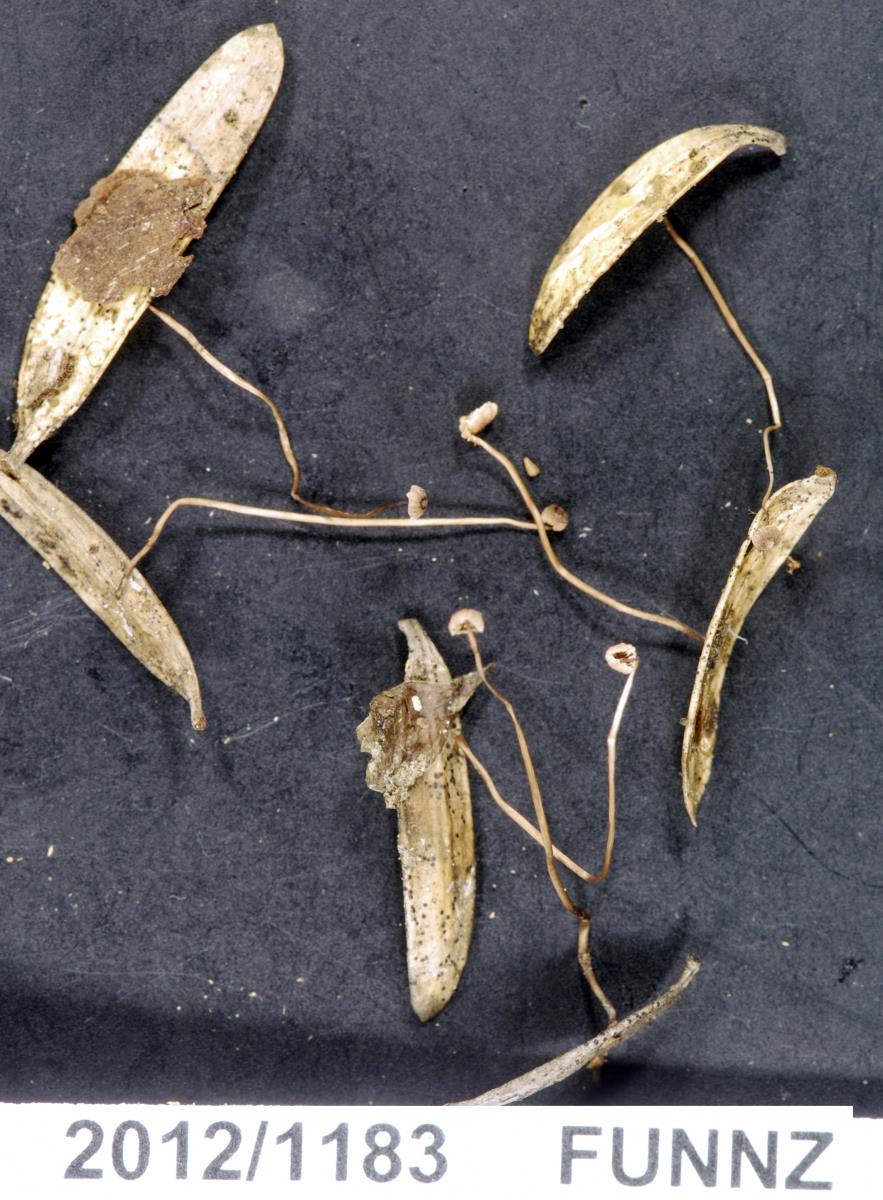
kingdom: Fungi
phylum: Basidiomycota
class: Agaricomycetes
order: Agaricales
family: Omphalotaceae
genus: Gymnopus
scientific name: Gymnopus
